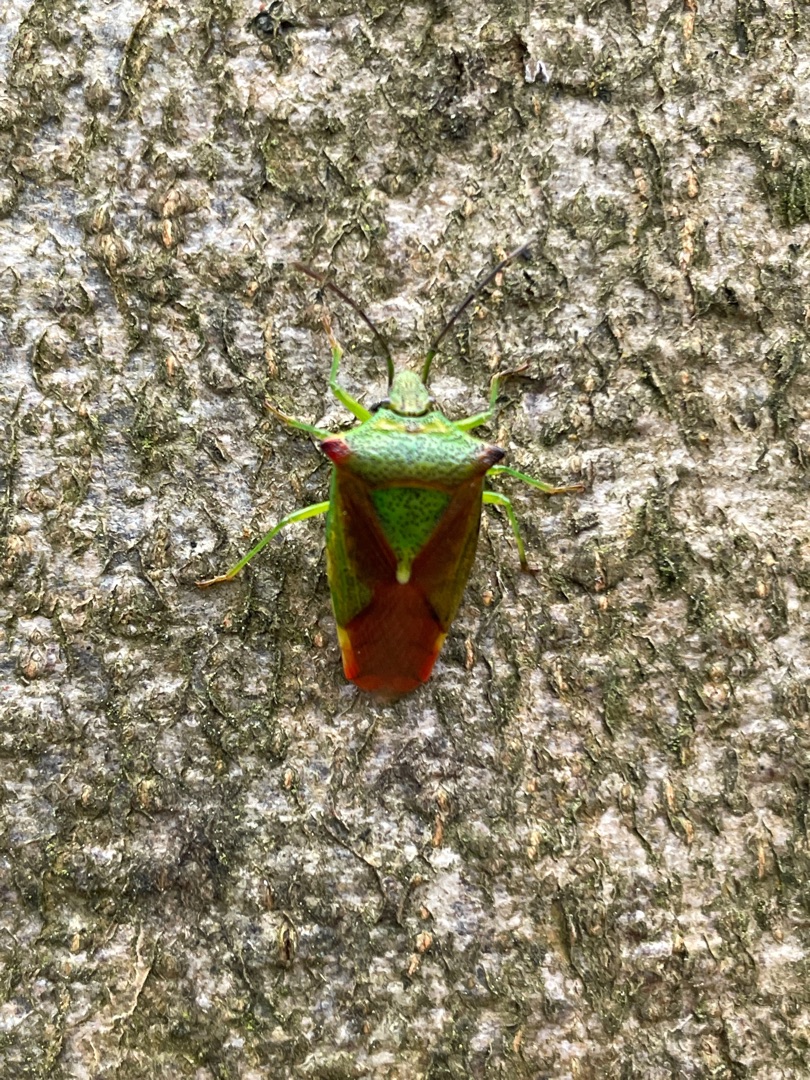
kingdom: Animalia
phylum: Arthropoda
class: Insecta
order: Hemiptera
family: Acanthosomatidae
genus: Acanthosoma
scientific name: Acanthosoma haemorrhoidale
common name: Stor løvtæge
